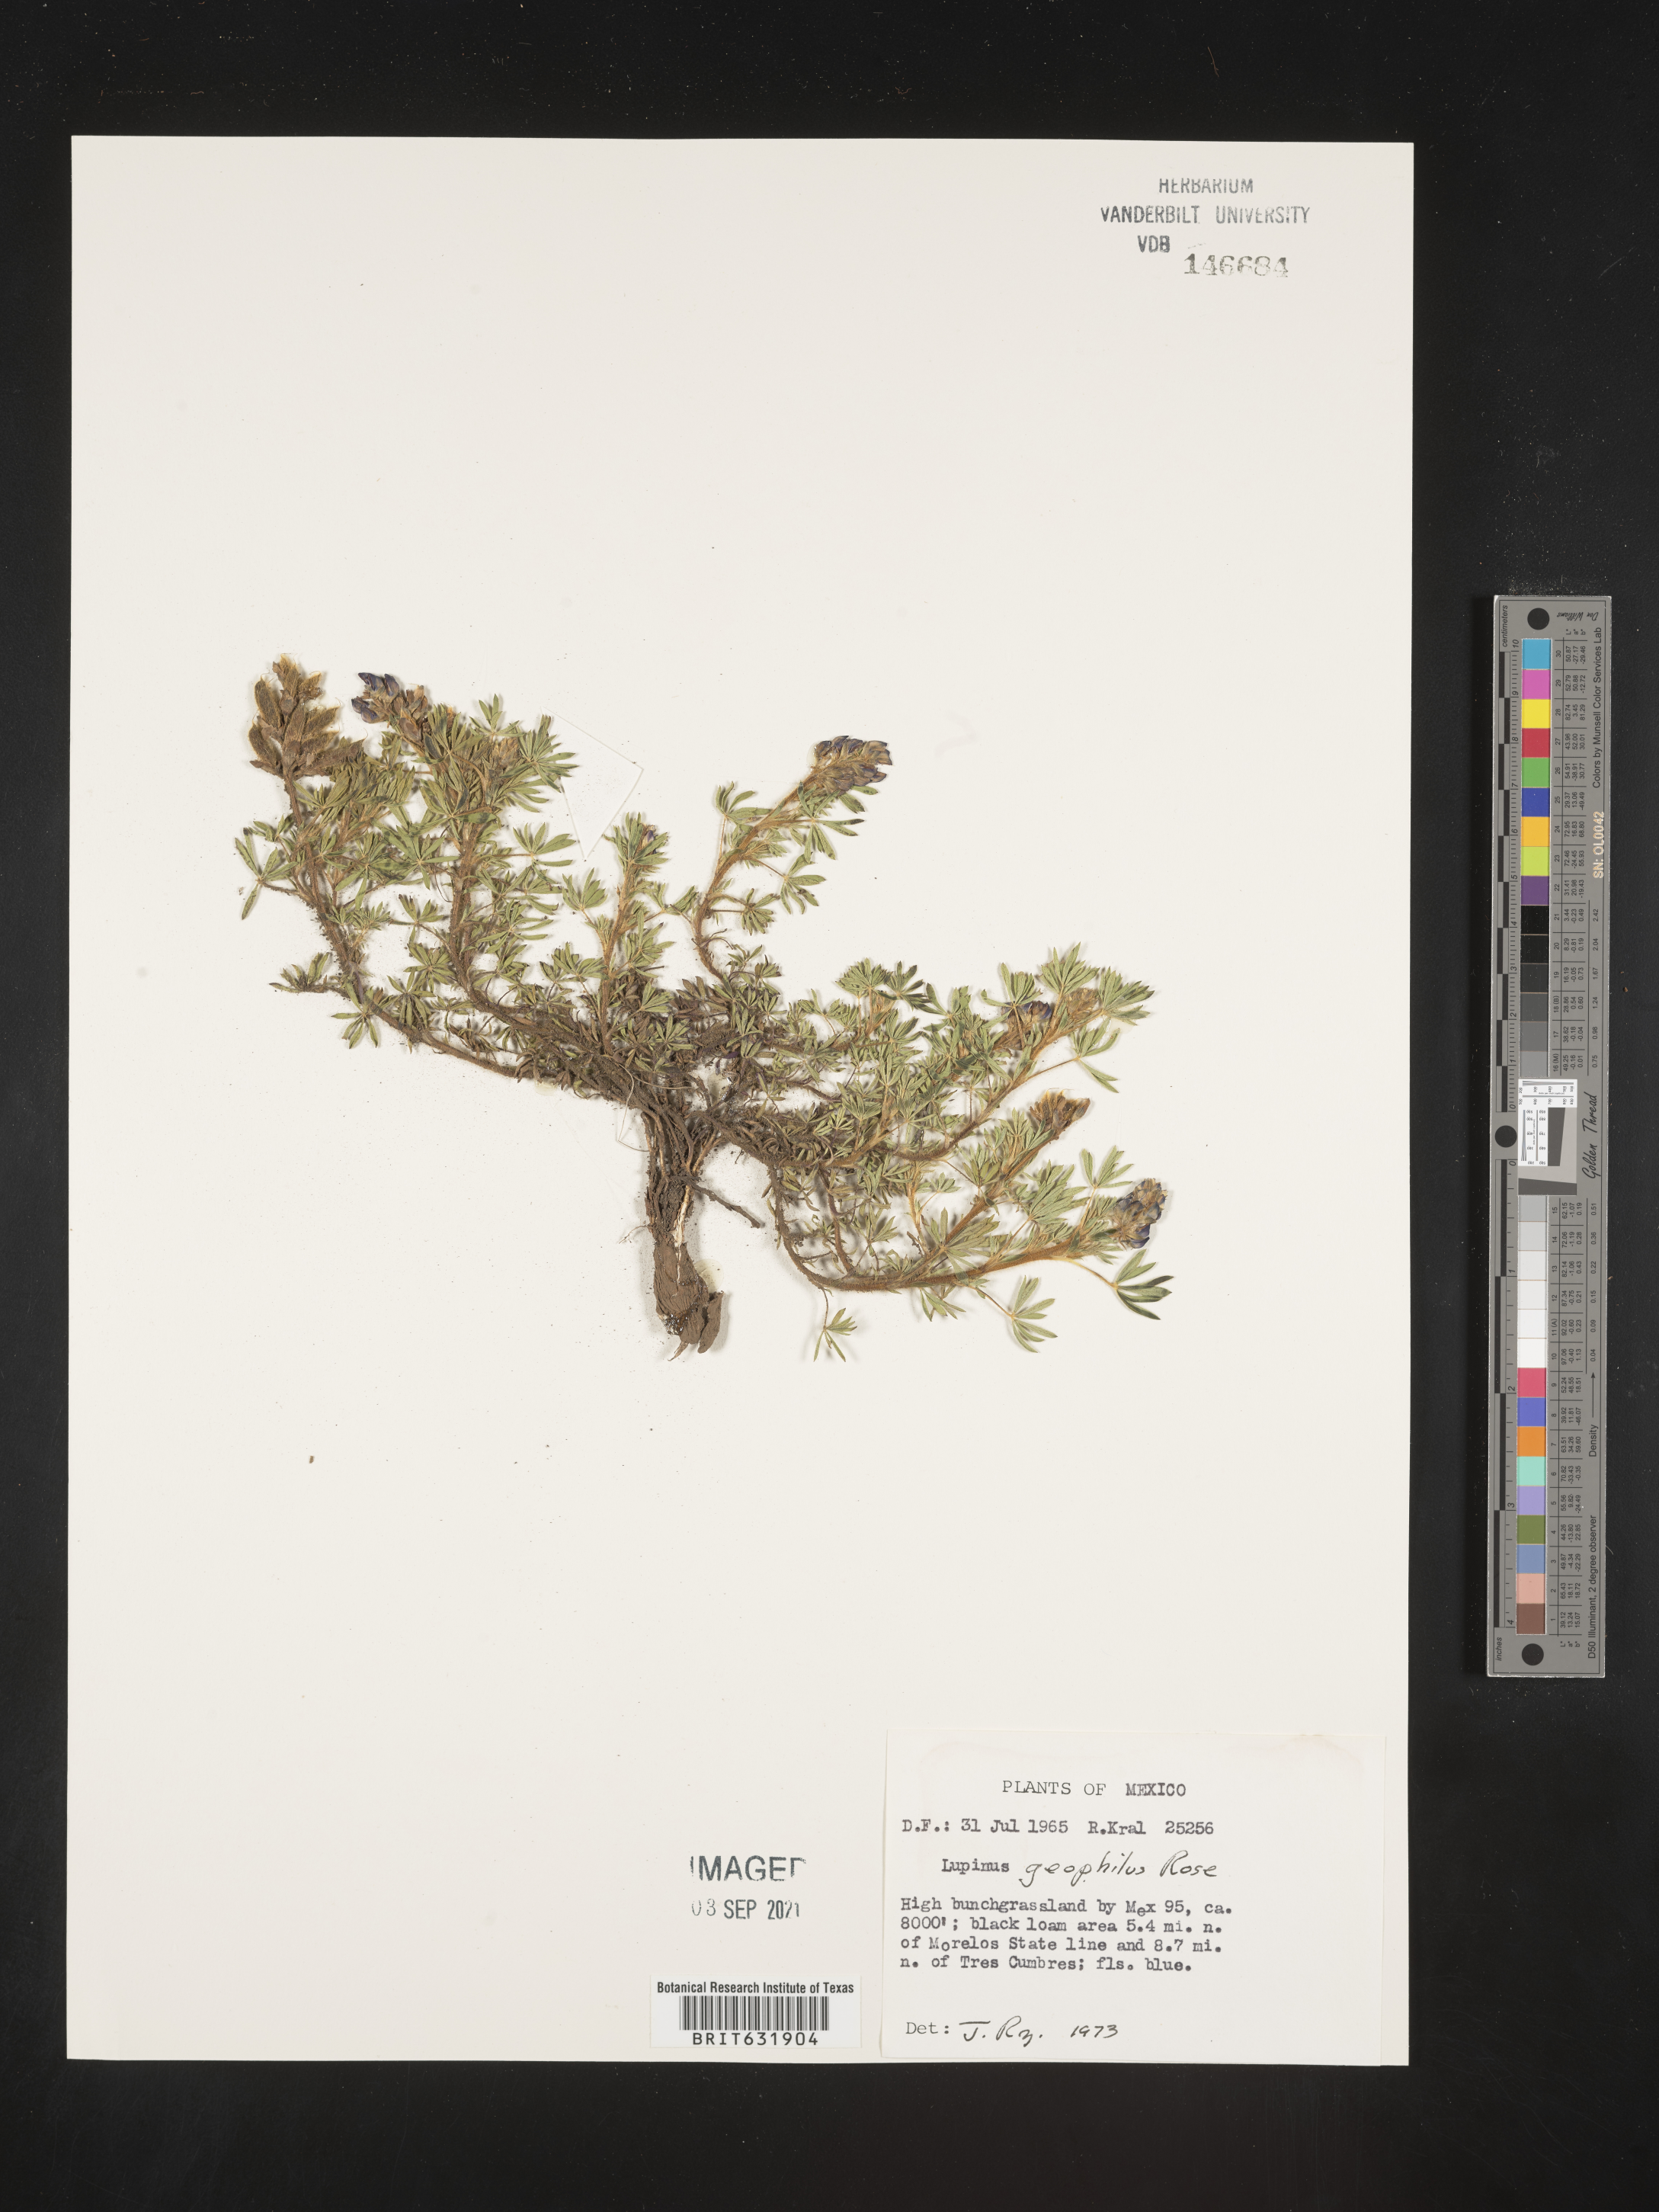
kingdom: Plantae
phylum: Tracheophyta
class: Magnoliopsida
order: Fabales
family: Fabaceae
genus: Lupinus
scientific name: Lupinus
